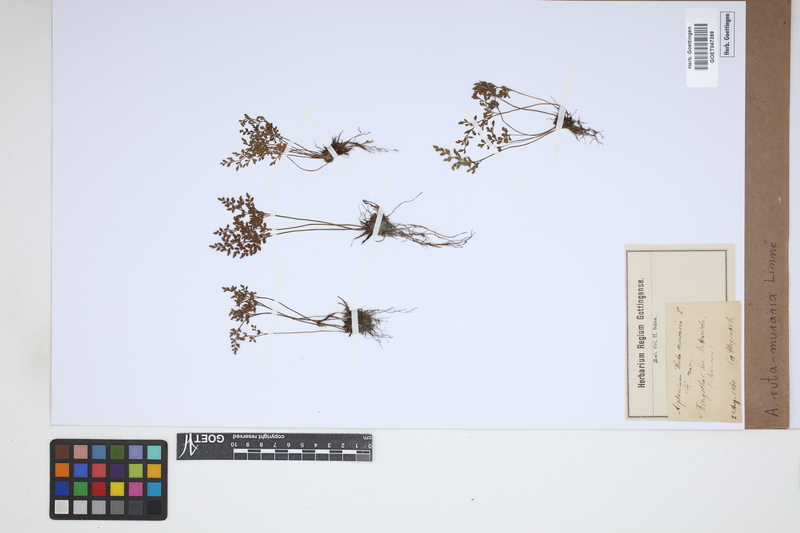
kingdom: Plantae
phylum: Tracheophyta
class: Polypodiopsida
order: Polypodiales
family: Aspleniaceae
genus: Asplenium
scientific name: Asplenium ruta-muraria
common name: Wall-rue
